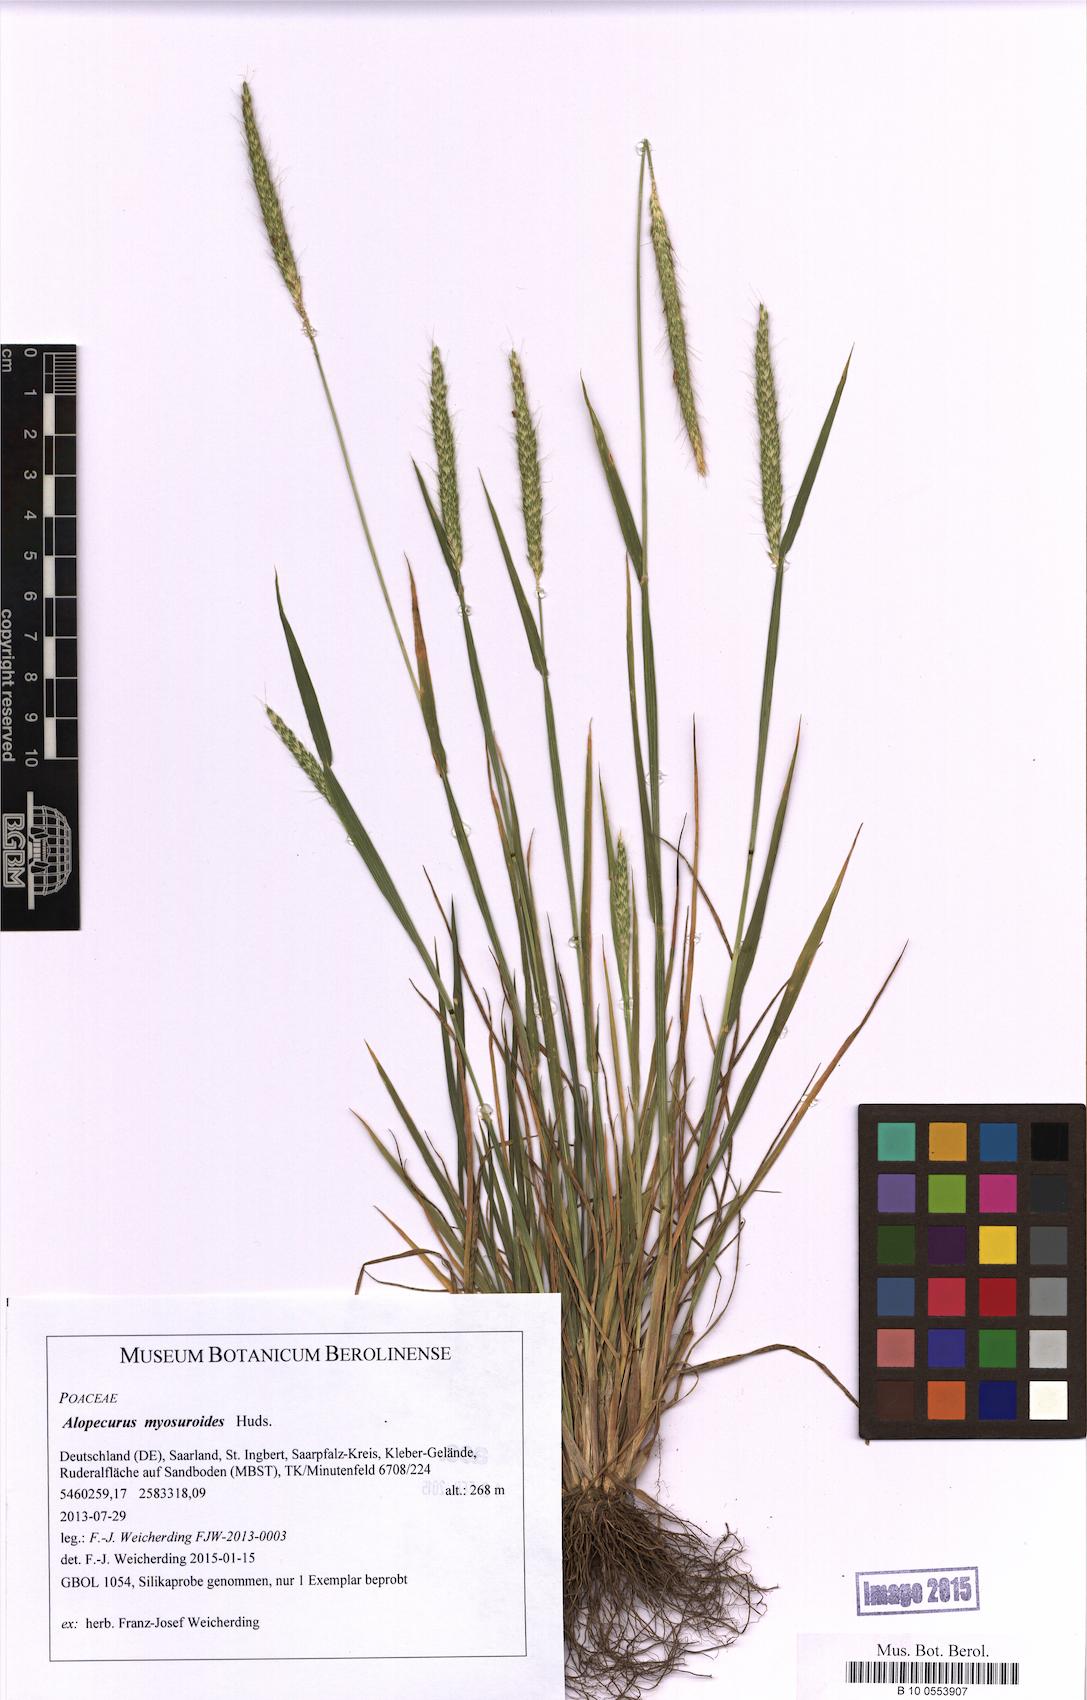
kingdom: Plantae
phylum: Tracheophyta
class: Liliopsida
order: Poales
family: Poaceae
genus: Alopecurus
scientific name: Alopecurus myosuroides
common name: Black-grass
